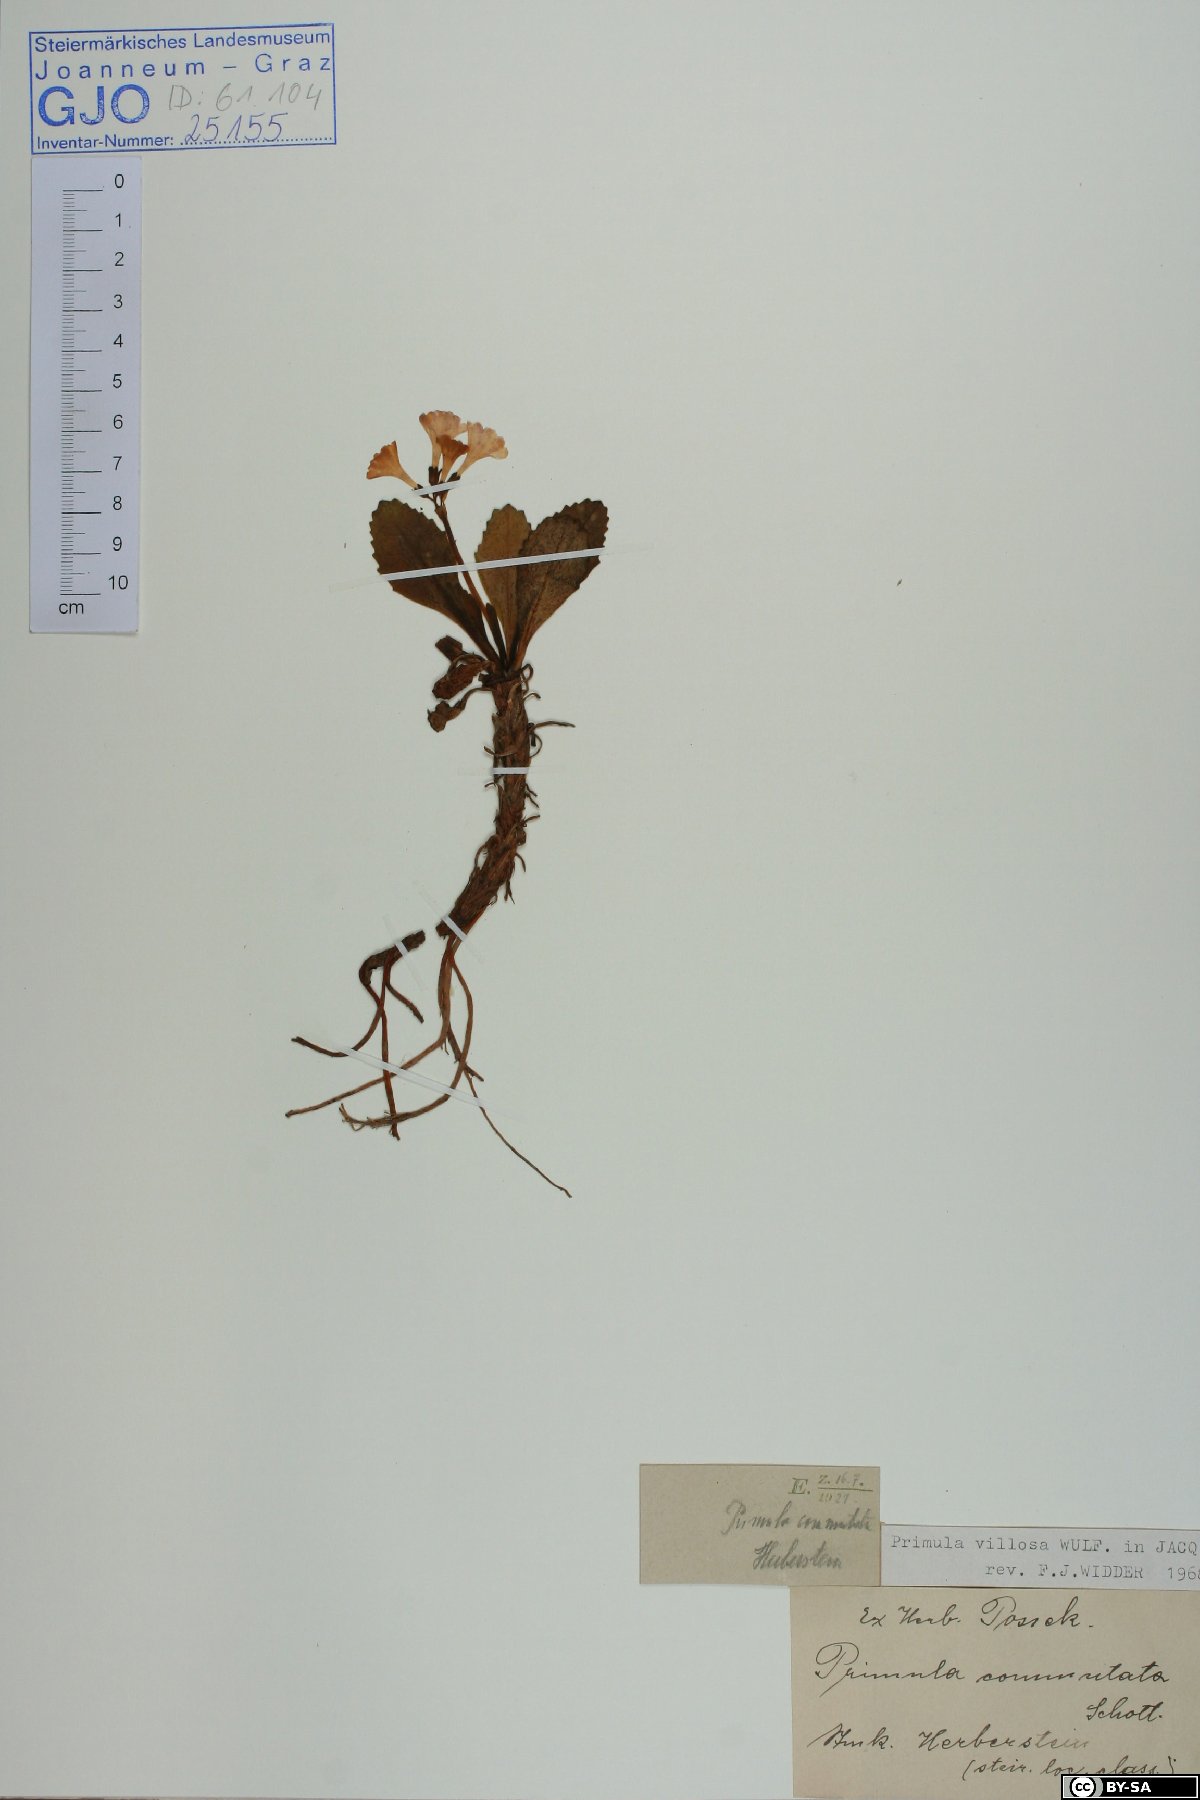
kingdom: Plantae
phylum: Tracheophyta
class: Magnoliopsida
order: Ericales
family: Primulaceae
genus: Primula
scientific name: Primula villosa
